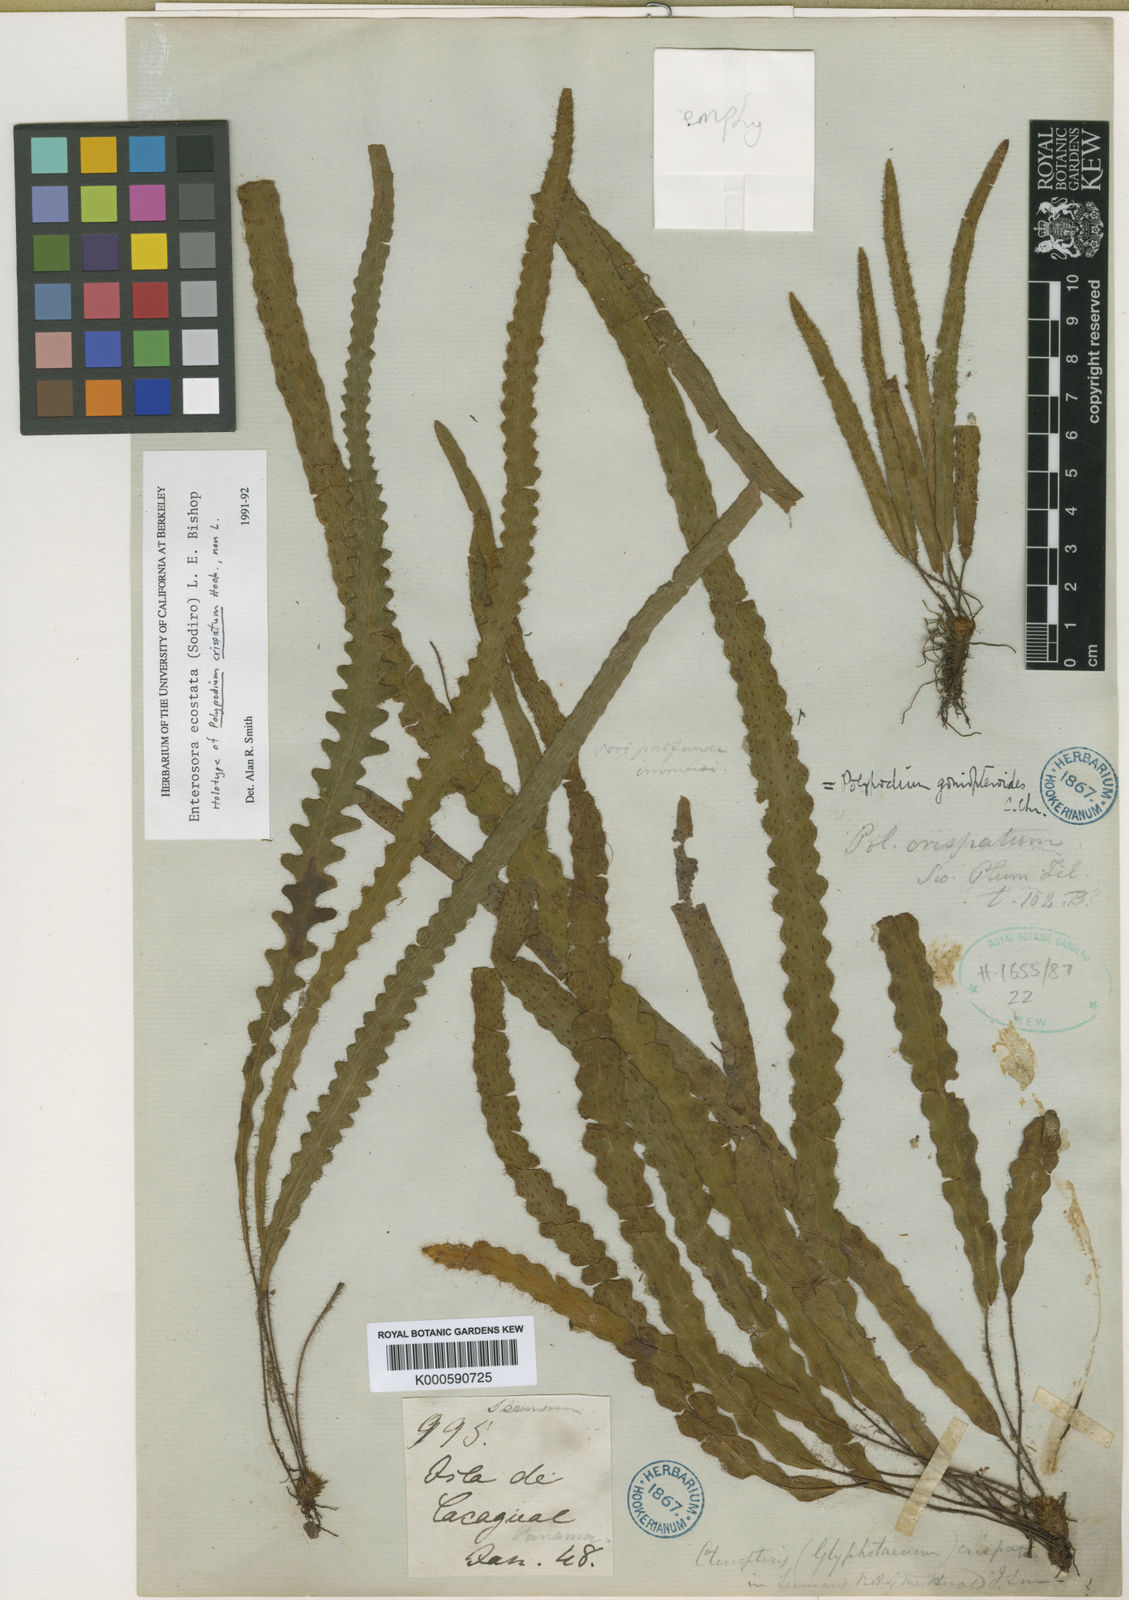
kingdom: Plantae
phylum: Tracheophyta
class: Polypodiopsida
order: Polypodiales
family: Polypodiaceae
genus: Enterosora
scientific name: Enterosora
